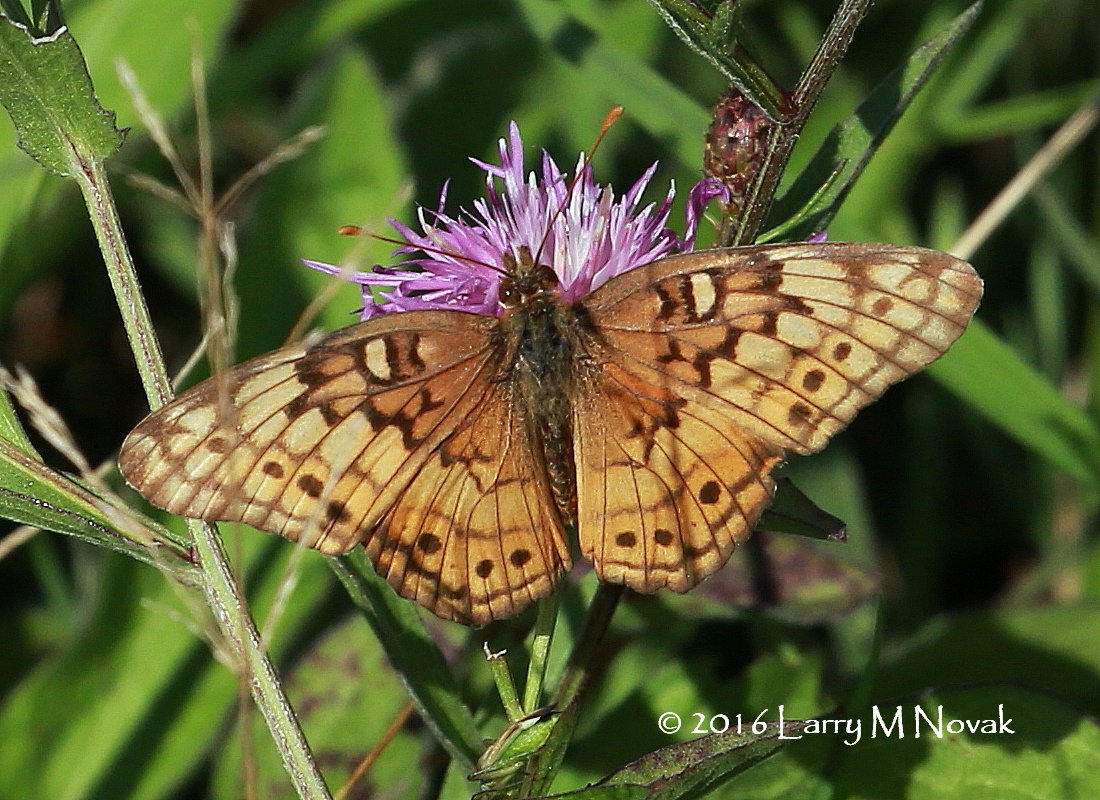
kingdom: Animalia
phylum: Arthropoda
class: Insecta
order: Lepidoptera
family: Nymphalidae
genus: Euptoieta
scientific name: Euptoieta claudia
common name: Variegated Fritillary
